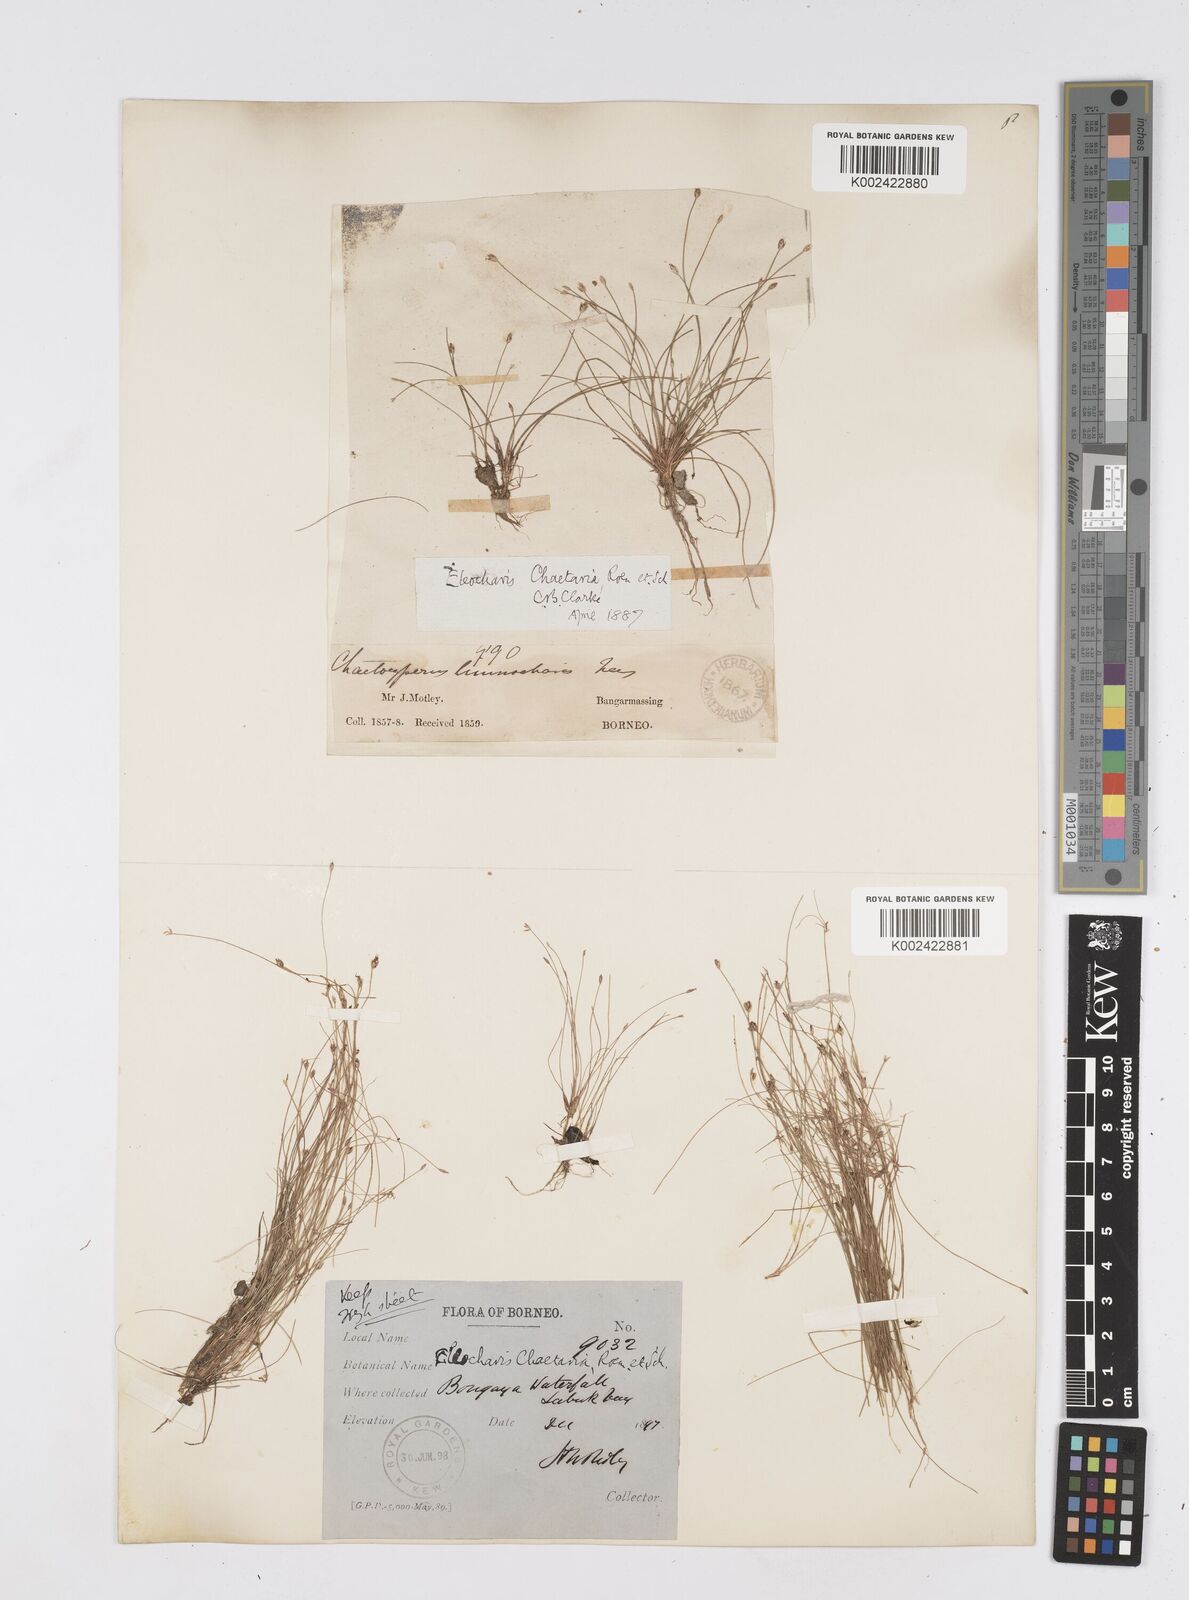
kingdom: Plantae
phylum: Tracheophyta
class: Liliopsida
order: Poales
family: Cyperaceae
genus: Eleocharis
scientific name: Eleocharis retroflexa
